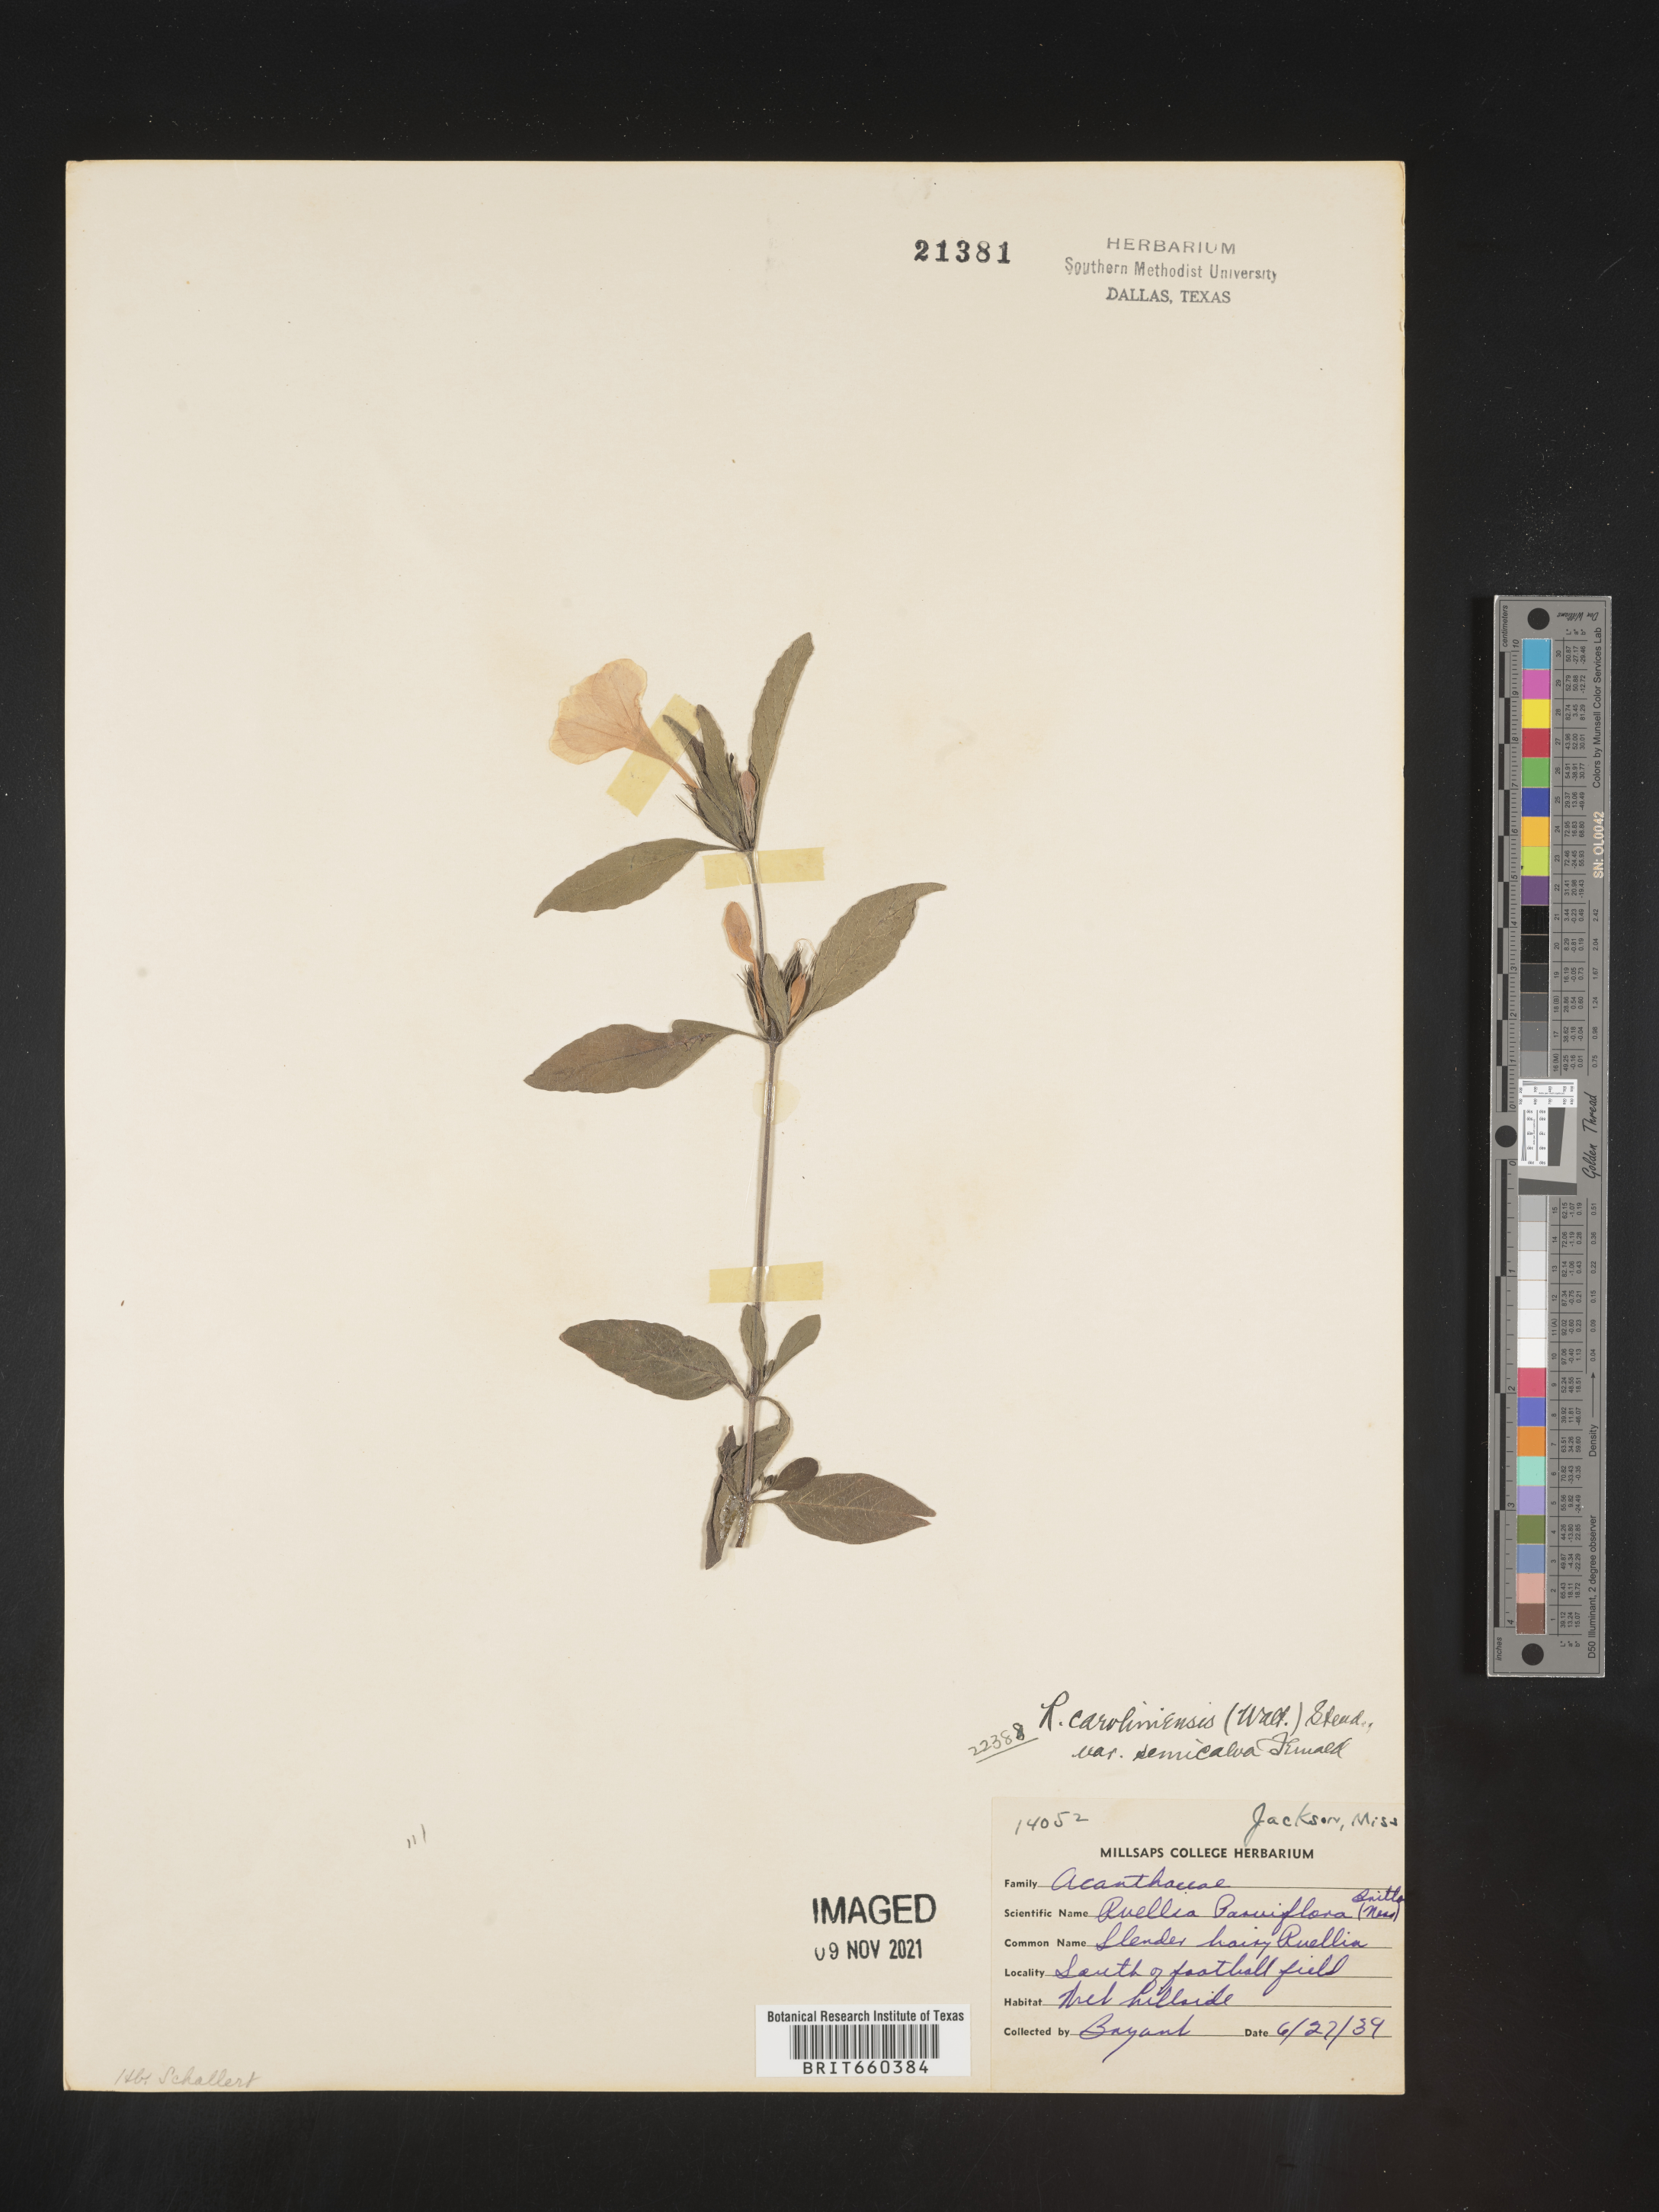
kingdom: Plantae
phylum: Tracheophyta
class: Magnoliopsida
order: Lamiales
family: Acanthaceae
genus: Ruellia
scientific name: Ruellia caroliniensis
